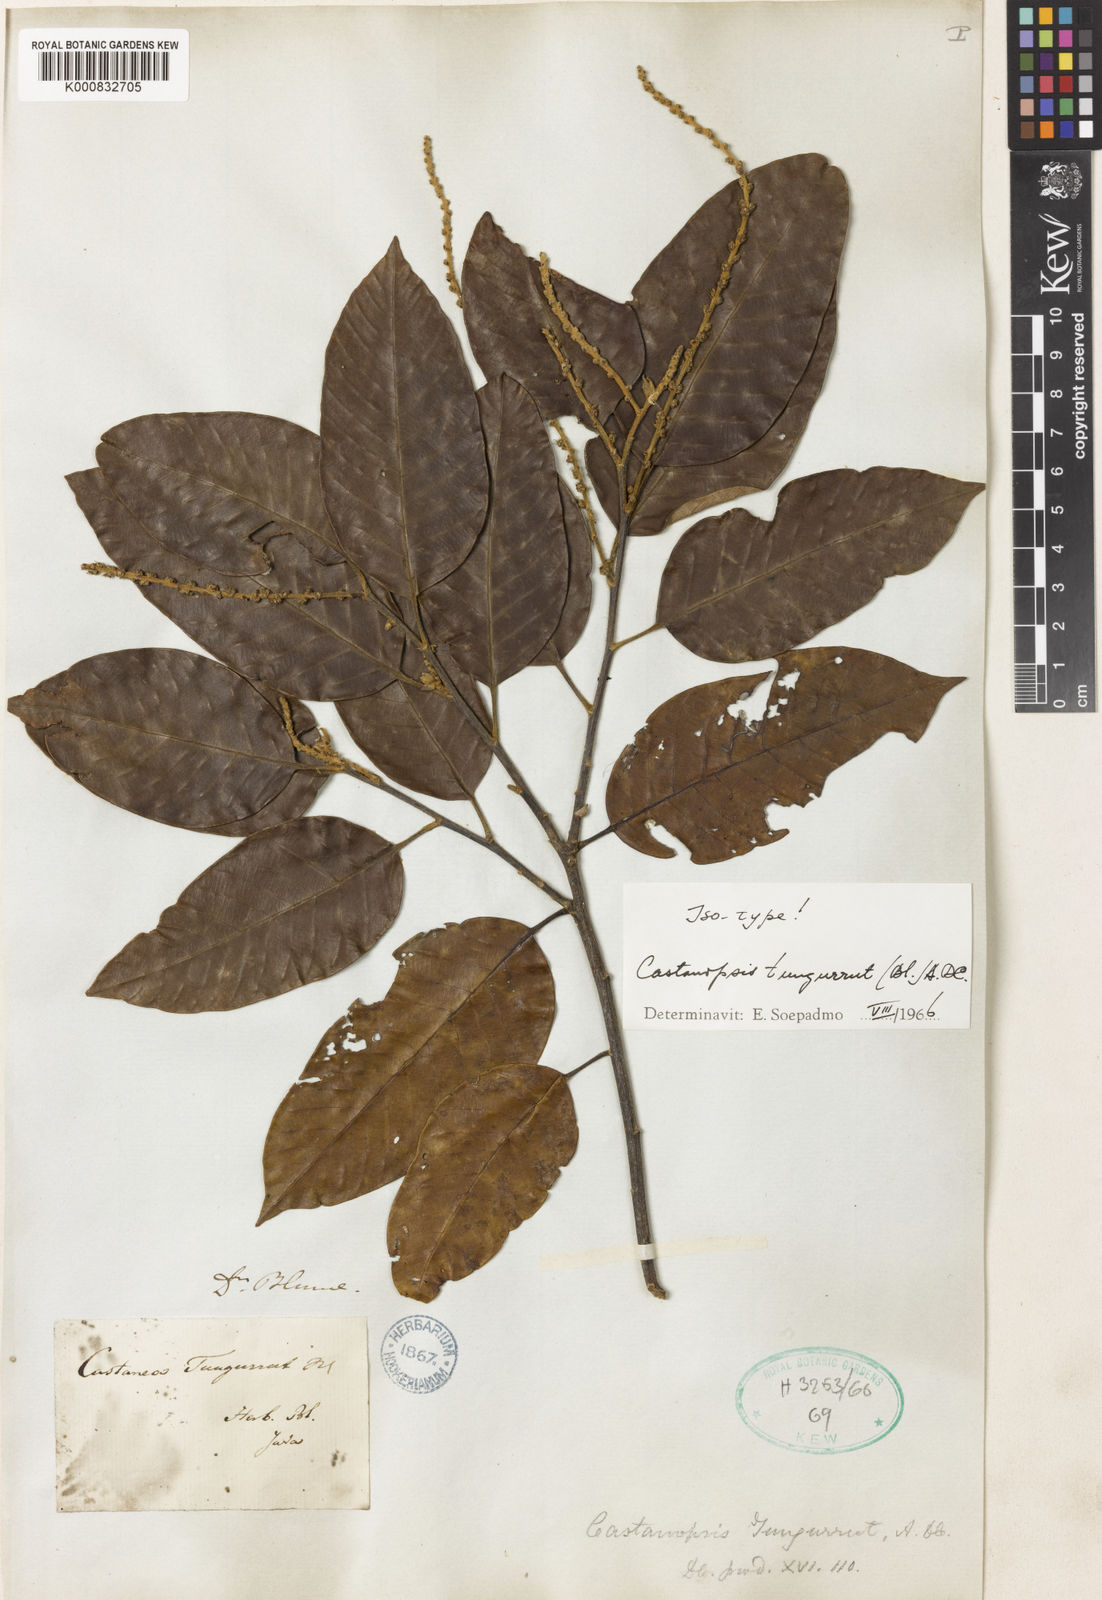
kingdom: Plantae
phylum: Tracheophyta
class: Magnoliopsida
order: Fagales
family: Fagaceae
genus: Castanopsis
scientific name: Castanopsis tungurrut
